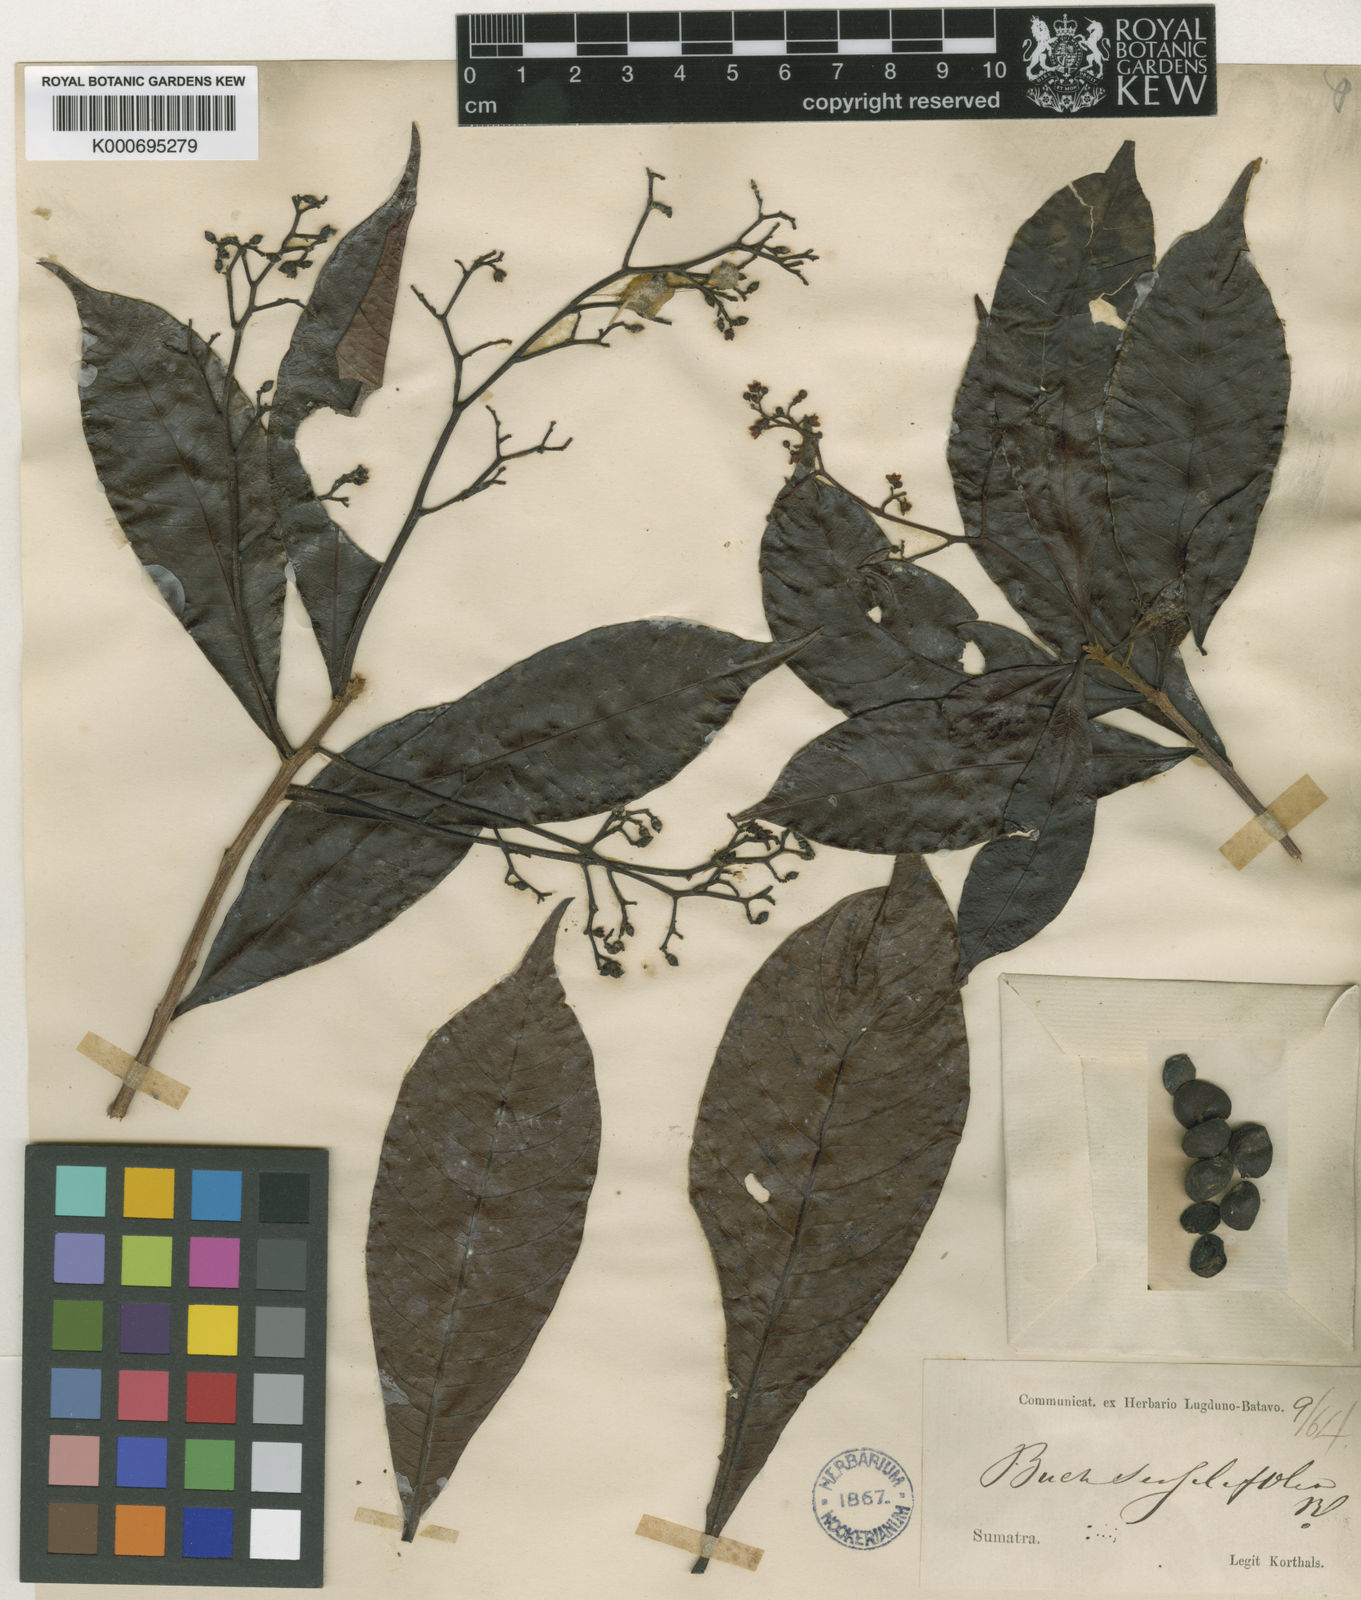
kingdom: Plantae
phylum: Tracheophyta
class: Magnoliopsida
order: Sapindales
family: Anacardiaceae
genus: Buchanania
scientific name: Buchanania sessifolia
